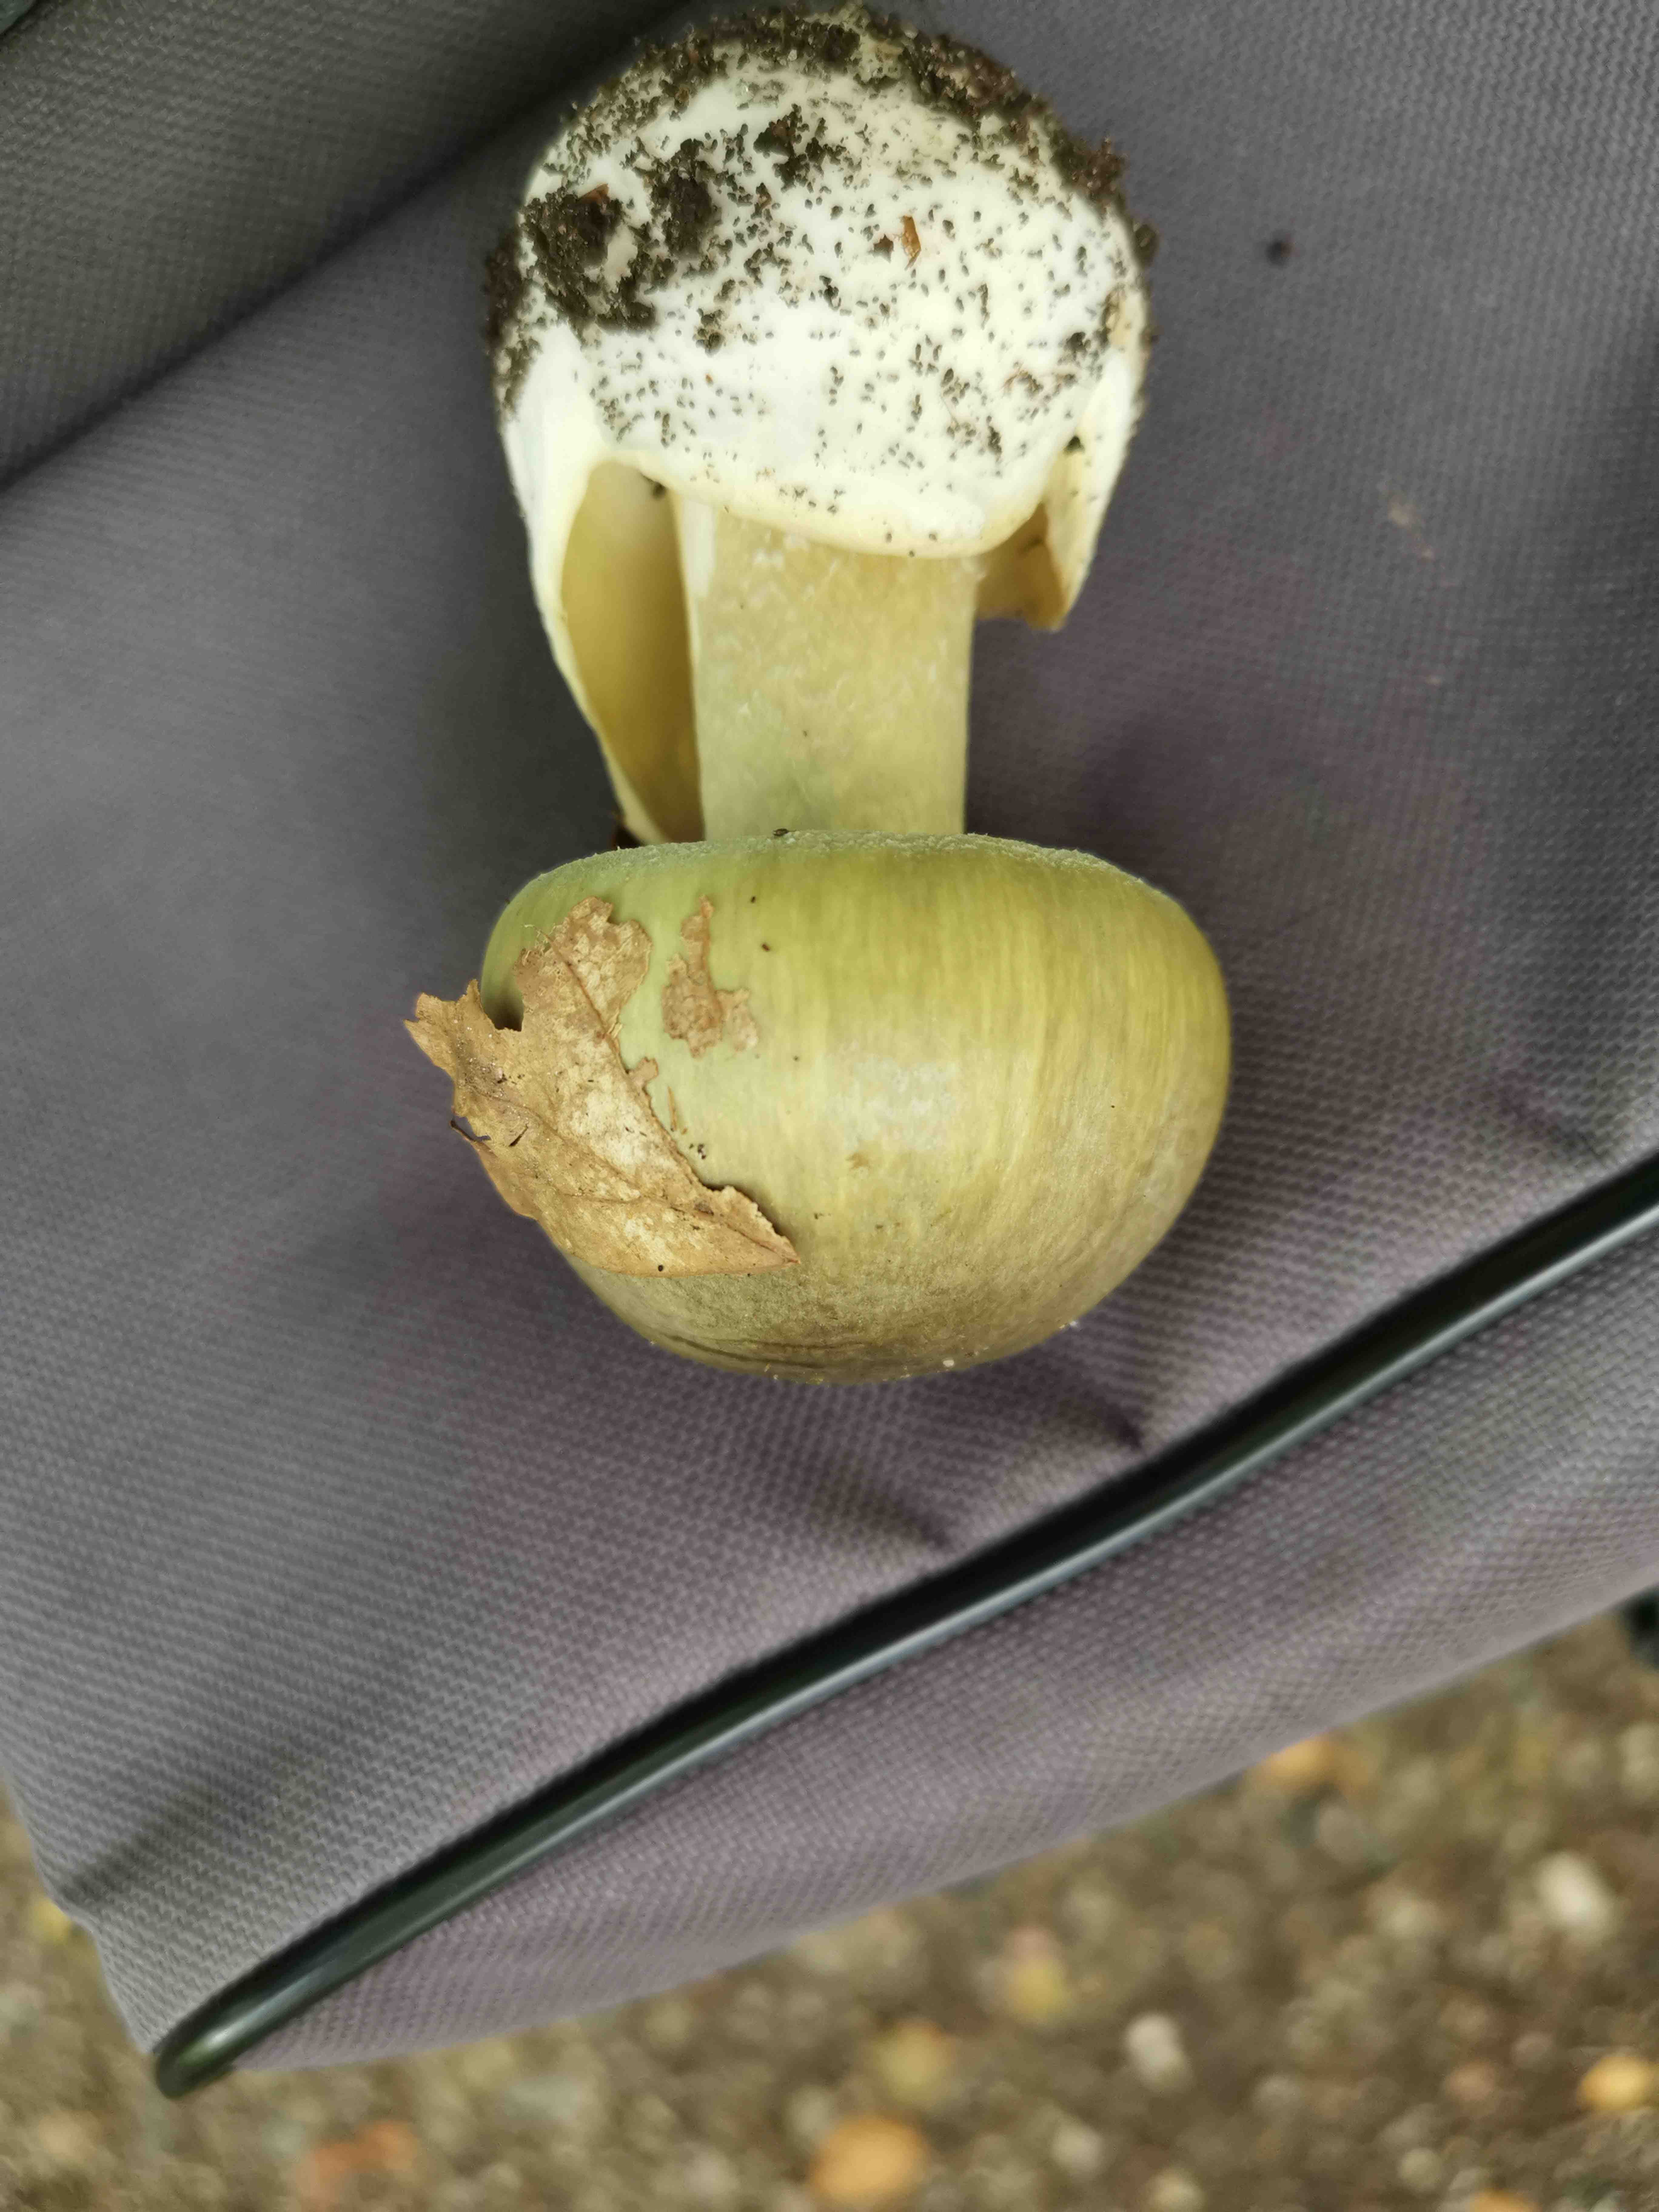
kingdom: Fungi
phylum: Basidiomycota
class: Agaricomycetes
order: Agaricales
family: Amanitaceae
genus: Amanita
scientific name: Amanita phalloides
